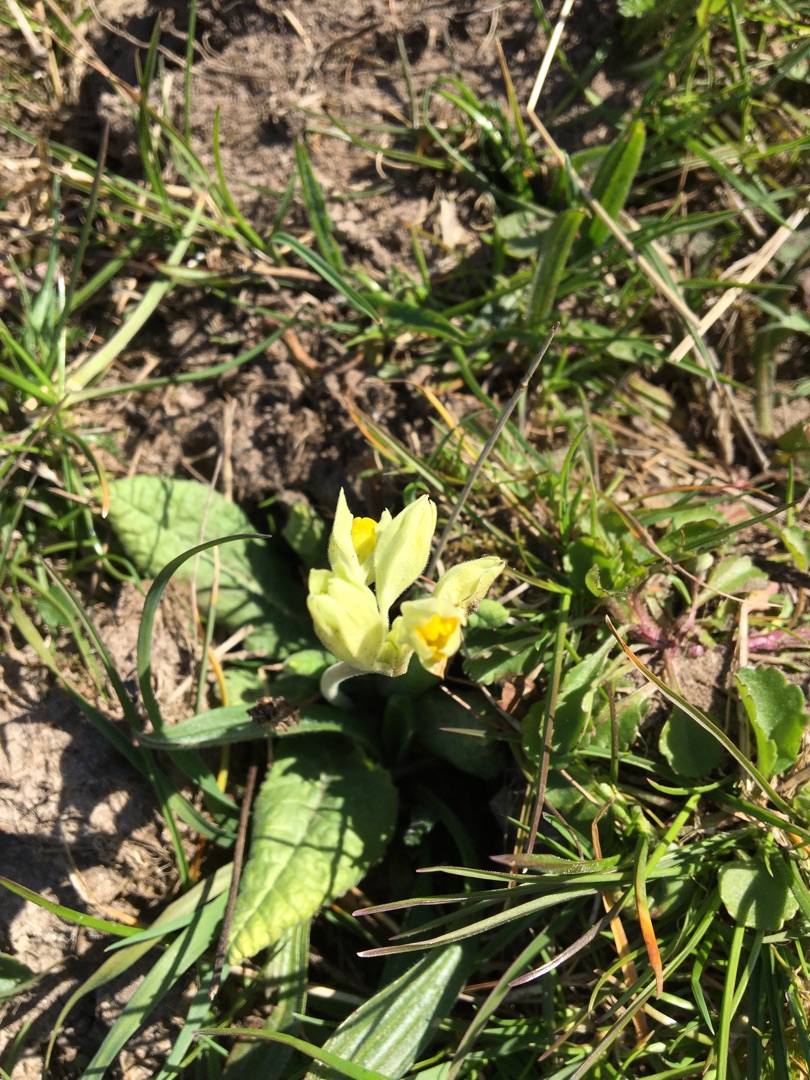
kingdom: Plantae
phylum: Tracheophyta
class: Magnoliopsida
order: Ericales
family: Primulaceae
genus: Primula
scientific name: Primula veris
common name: Hulkravet kodriver
